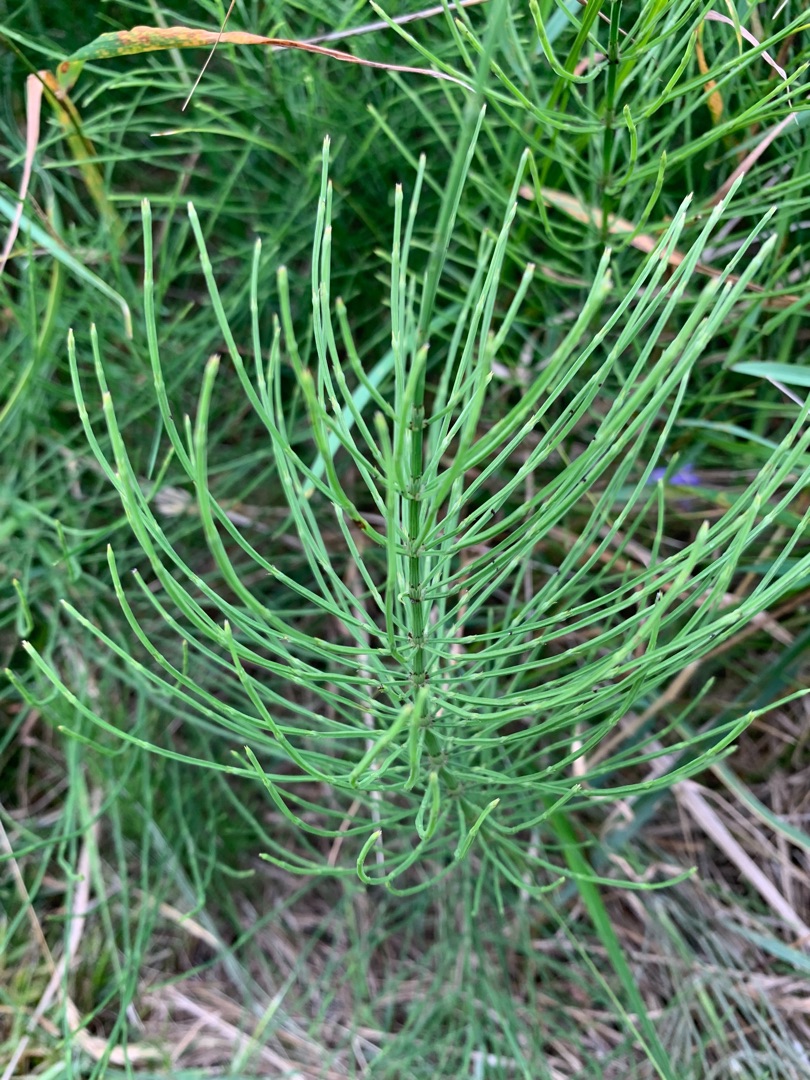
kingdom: Plantae
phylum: Tracheophyta
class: Polypodiopsida
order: Equisetales
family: Equisetaceae
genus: Equisetum
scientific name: Equisetum arvense
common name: Ager-padderok
